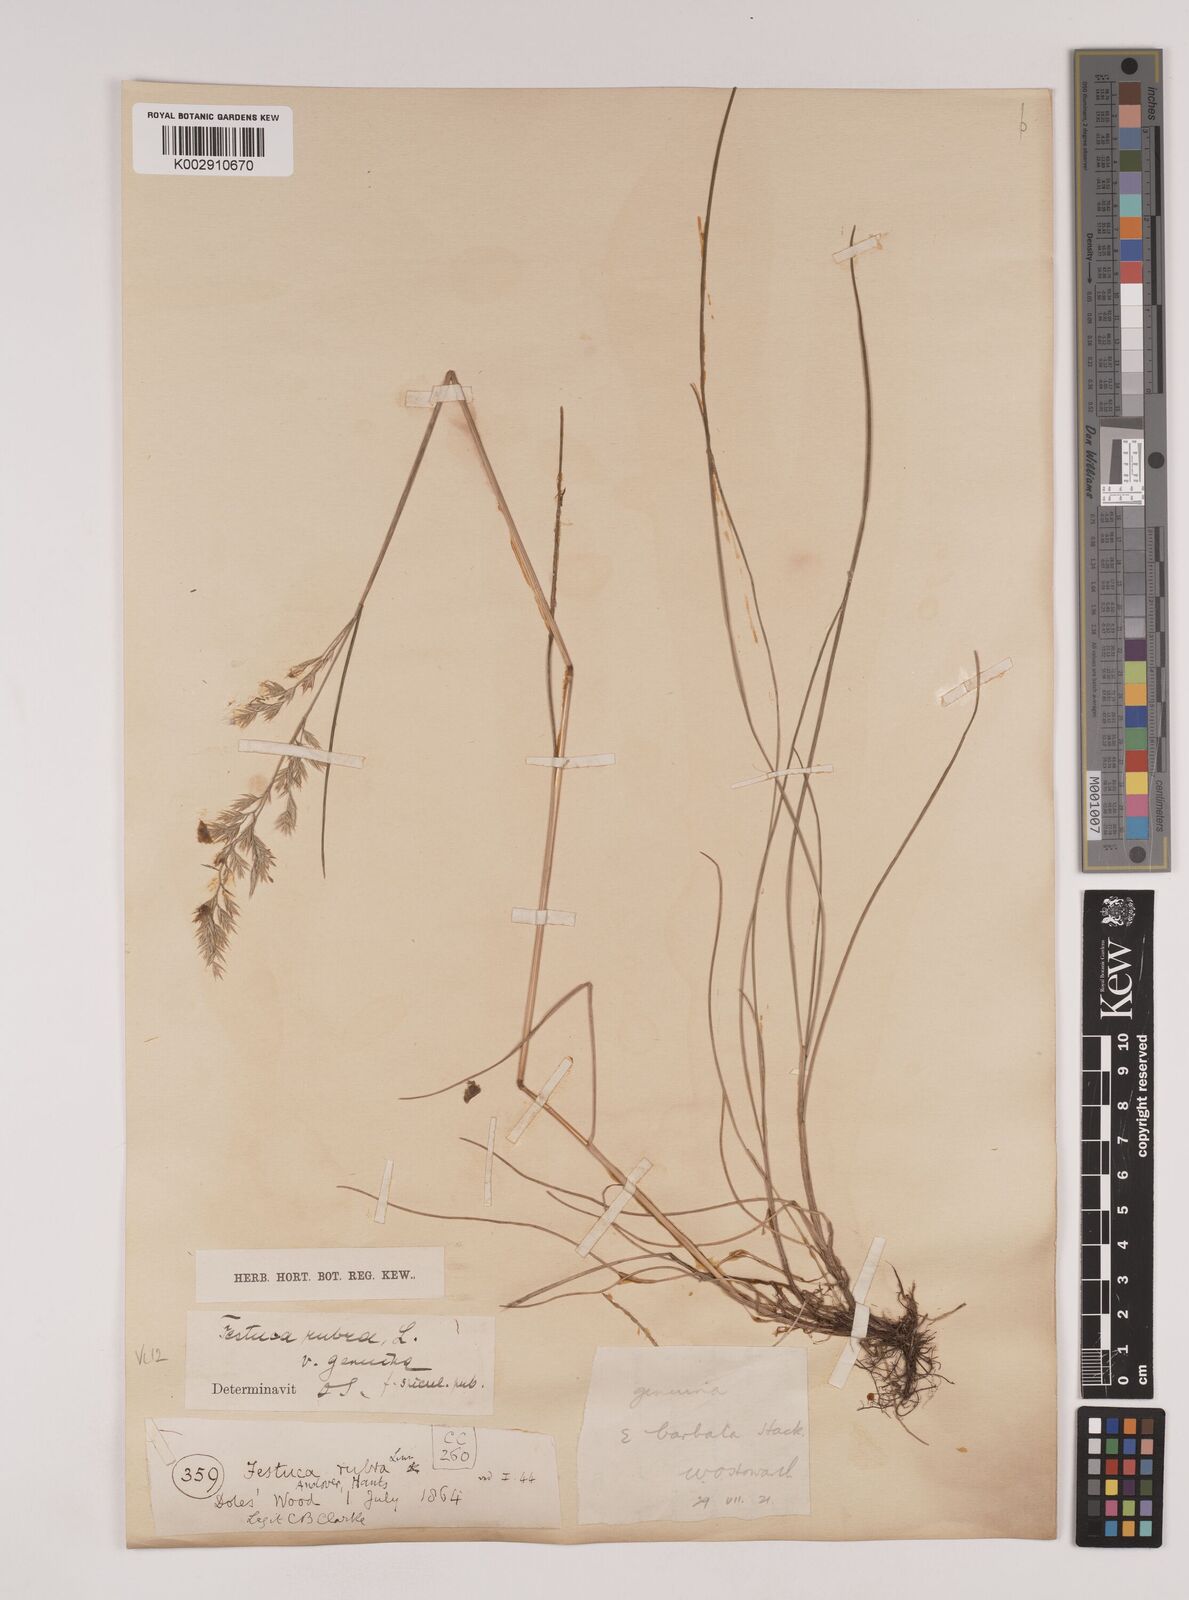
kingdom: Plantae
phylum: Tracheophyta
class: Liliopsida
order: Poales
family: Poaceae
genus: Festuca
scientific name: Festuca rubra
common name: Red fescue
